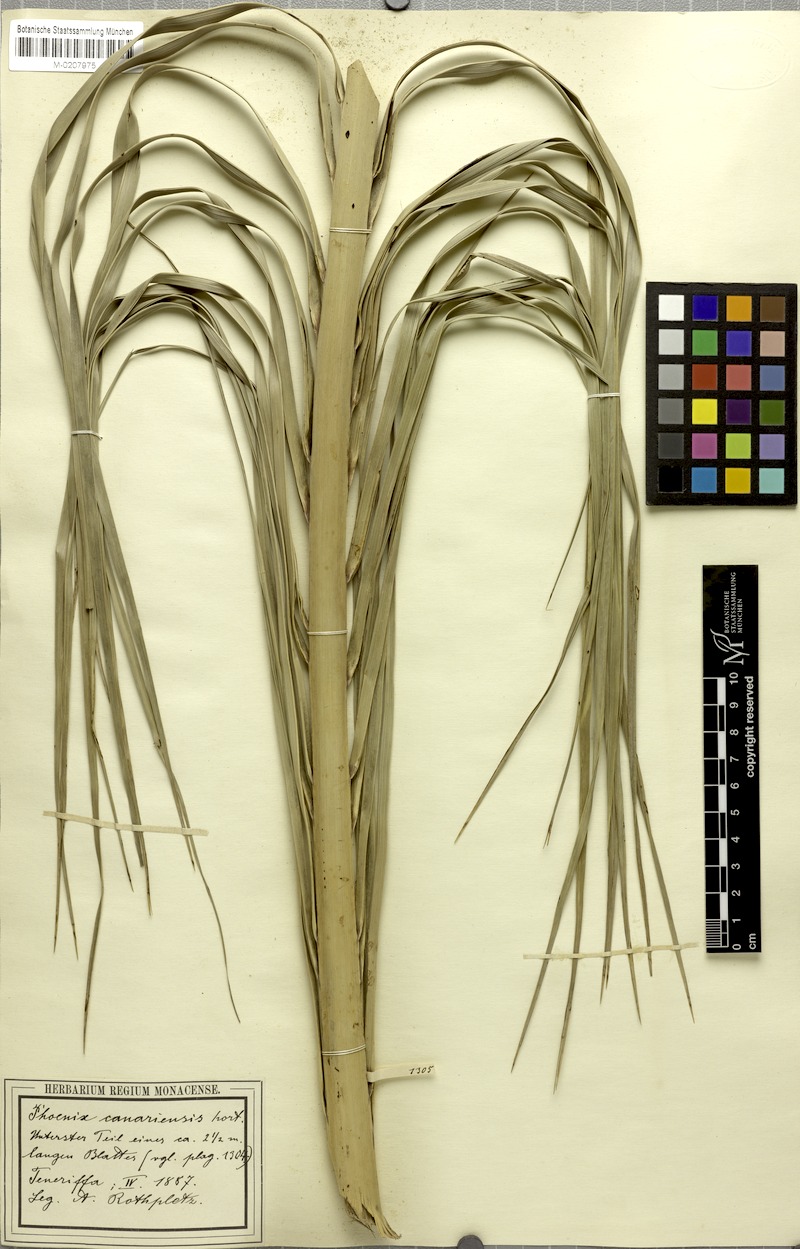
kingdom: Plantae
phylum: Tracheophyta
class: Liliopsida
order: Arecales
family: Arecaceae
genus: Phoenix
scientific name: Phoenix canariensis
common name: Canary island date palm
